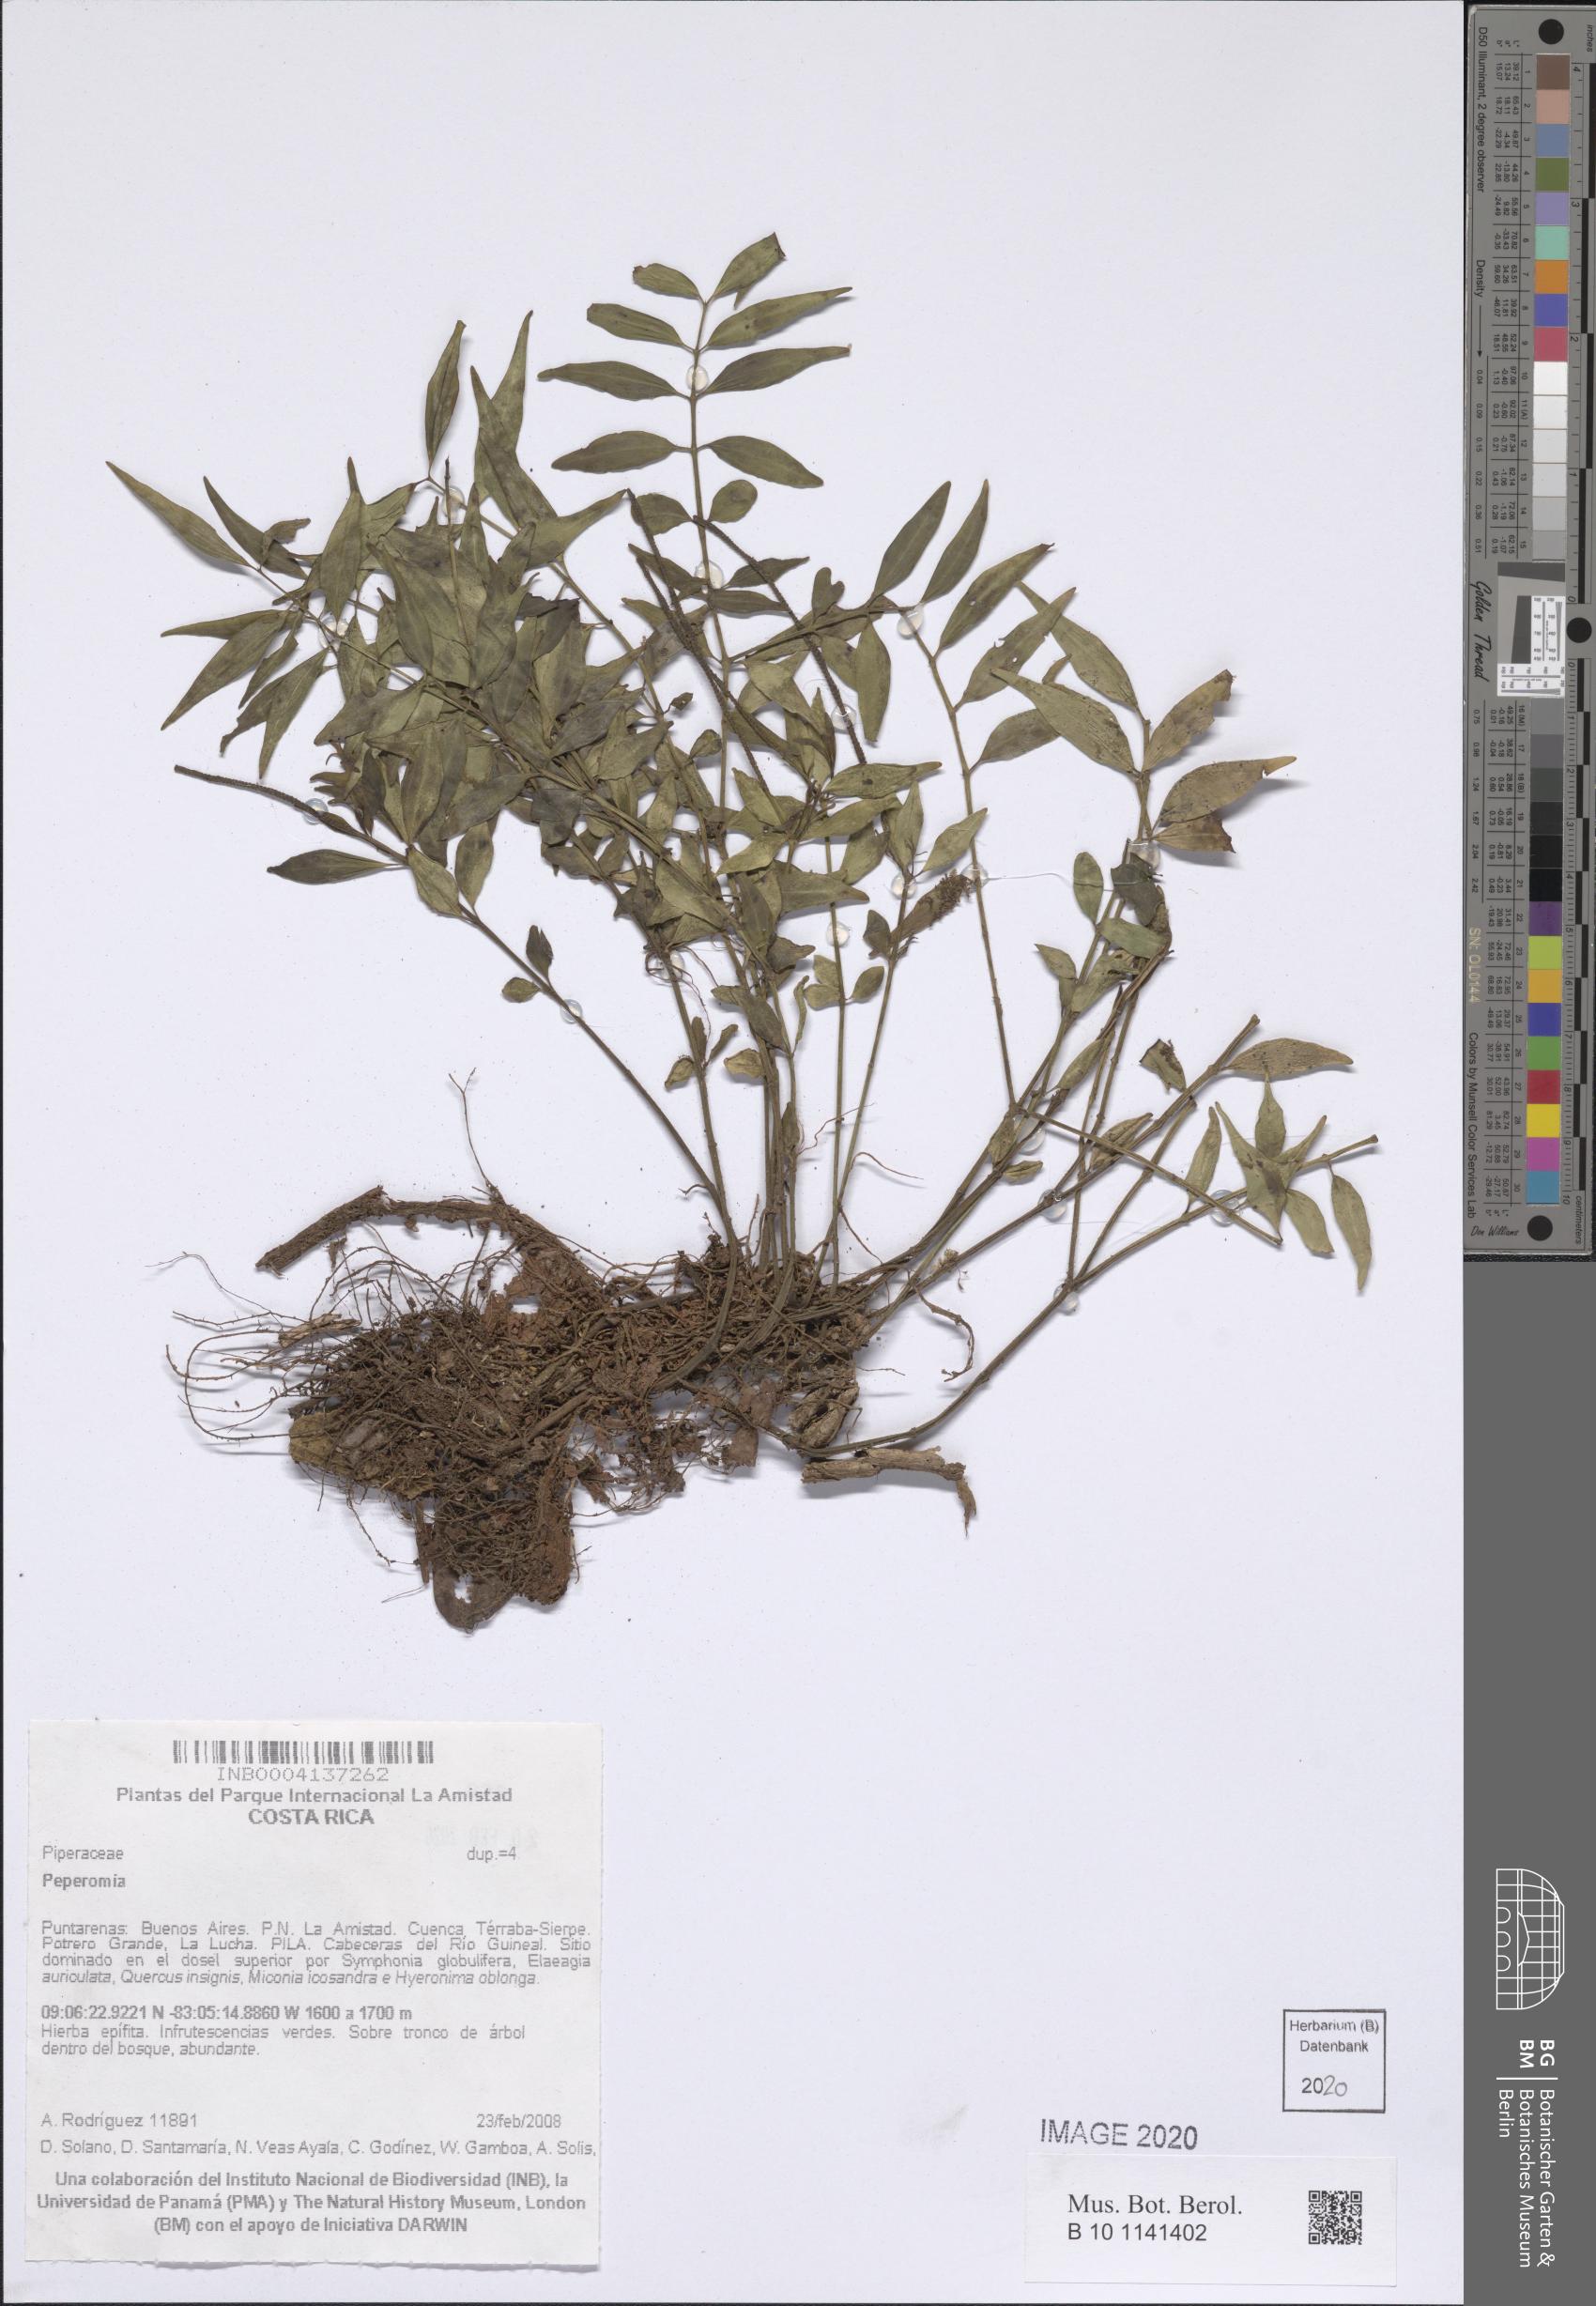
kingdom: Plantae
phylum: Tracheophyta
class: Magnoliopsida
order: Piperales
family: Piperaceae
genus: Peperomia
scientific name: Peperomia
